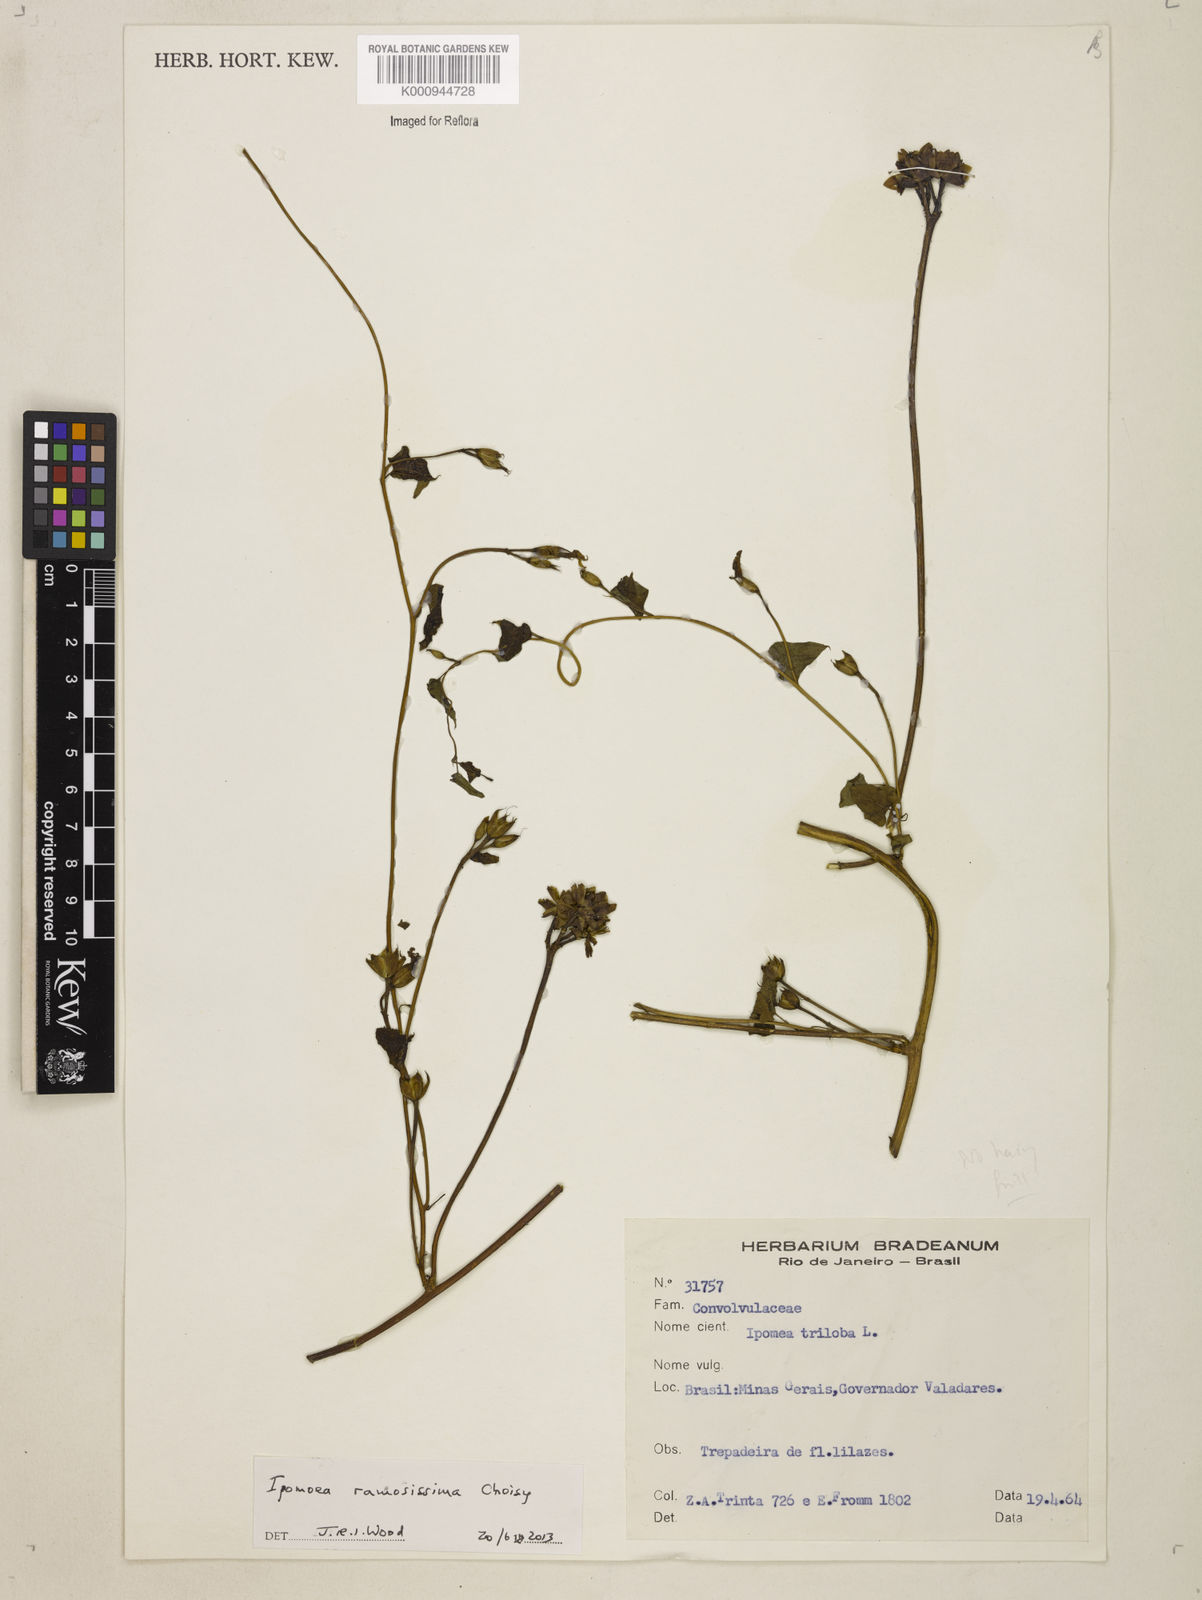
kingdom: Plantae
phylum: Tracheophyta
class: Magnoliopsida
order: Solanales
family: Convolvulaceae
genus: Ipomoea
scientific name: Ipomoea ramosissima
